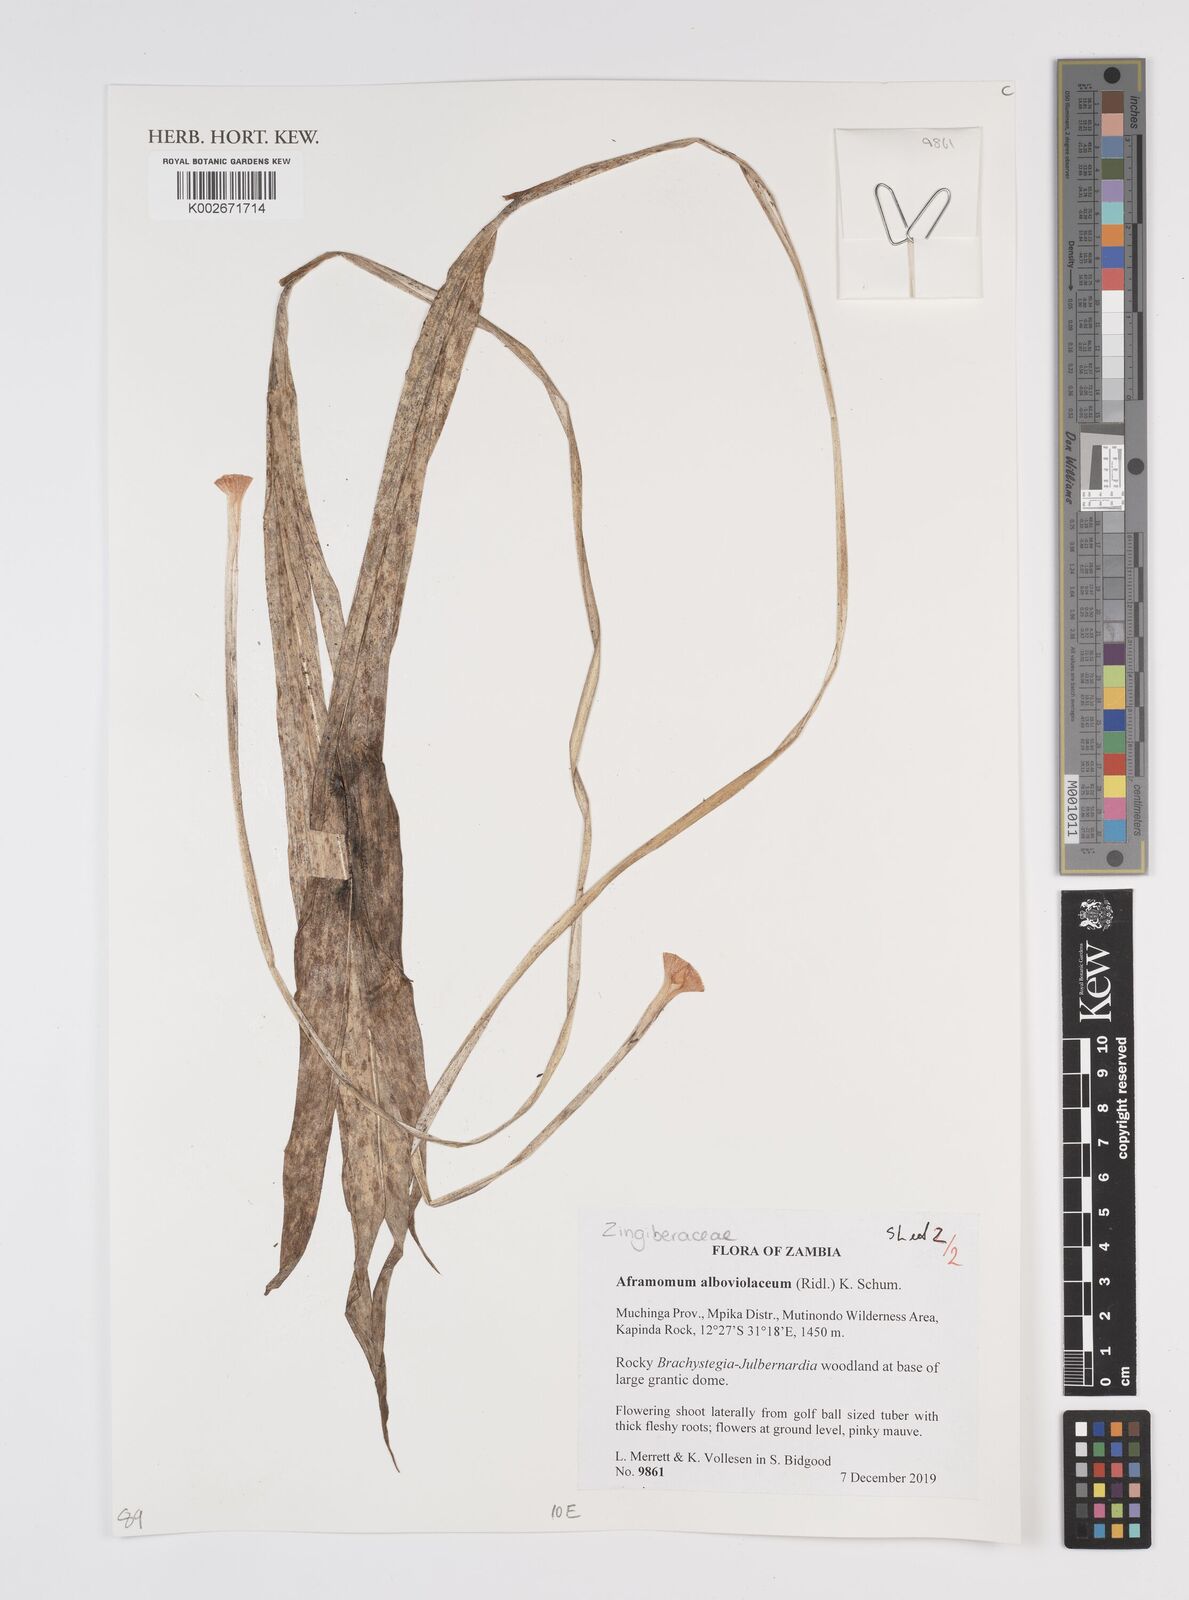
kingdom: Plantae
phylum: Tracheophyta
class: Liliopsida
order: Zingiberales
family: Zingiberaceae
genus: Aframomum
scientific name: Aframomum alboviolaceum
